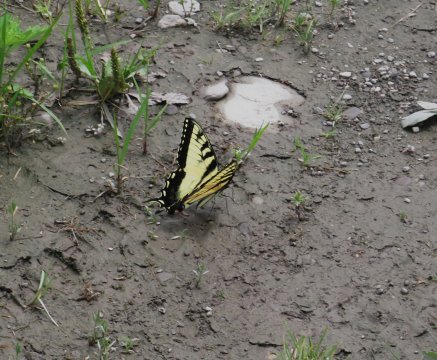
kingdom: Animalia
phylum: Arthropoda
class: Insecta
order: Lepidoptera
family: Papilionidae
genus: Pterourus
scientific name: Pterourus glaucus
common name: Eastern Tiger Swallowtail
